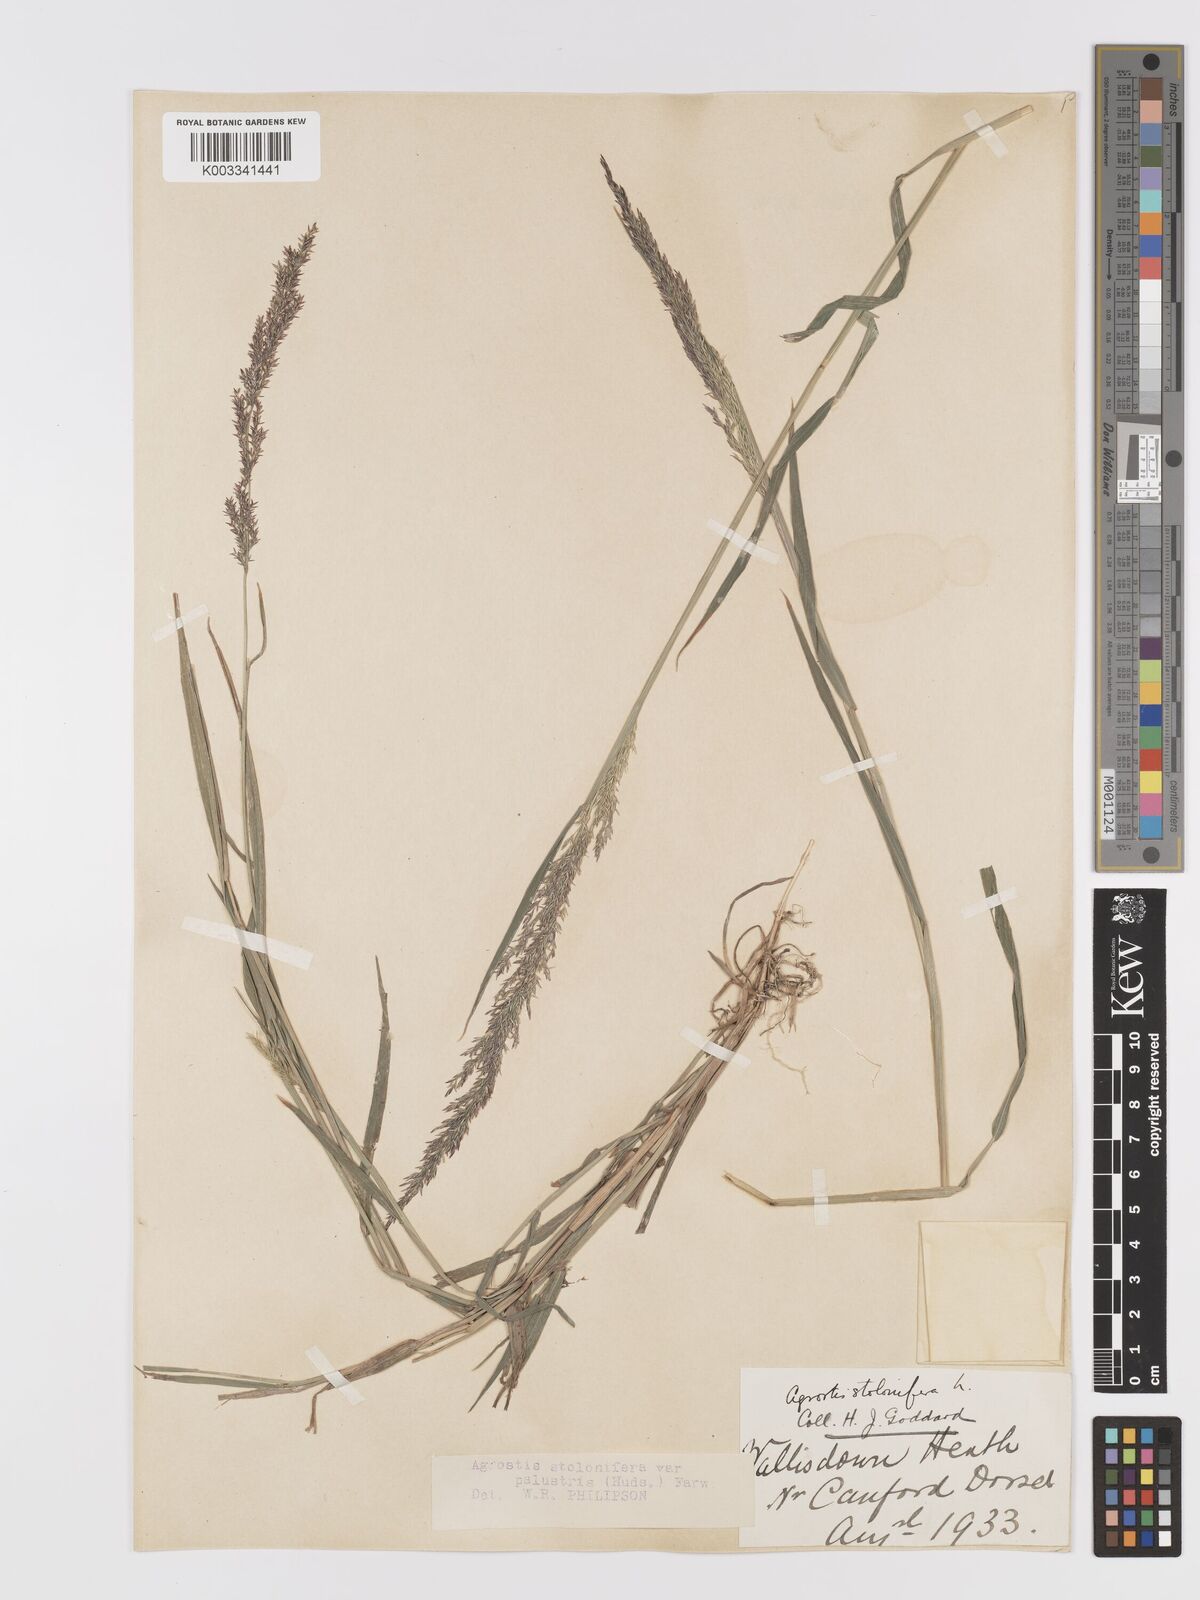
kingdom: Plantae
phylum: Tracheophyta
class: Liliopsida
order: Poales
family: Poaceae
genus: Agrostis
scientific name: Agrostis stolonifera
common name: Creeping bentgrass
